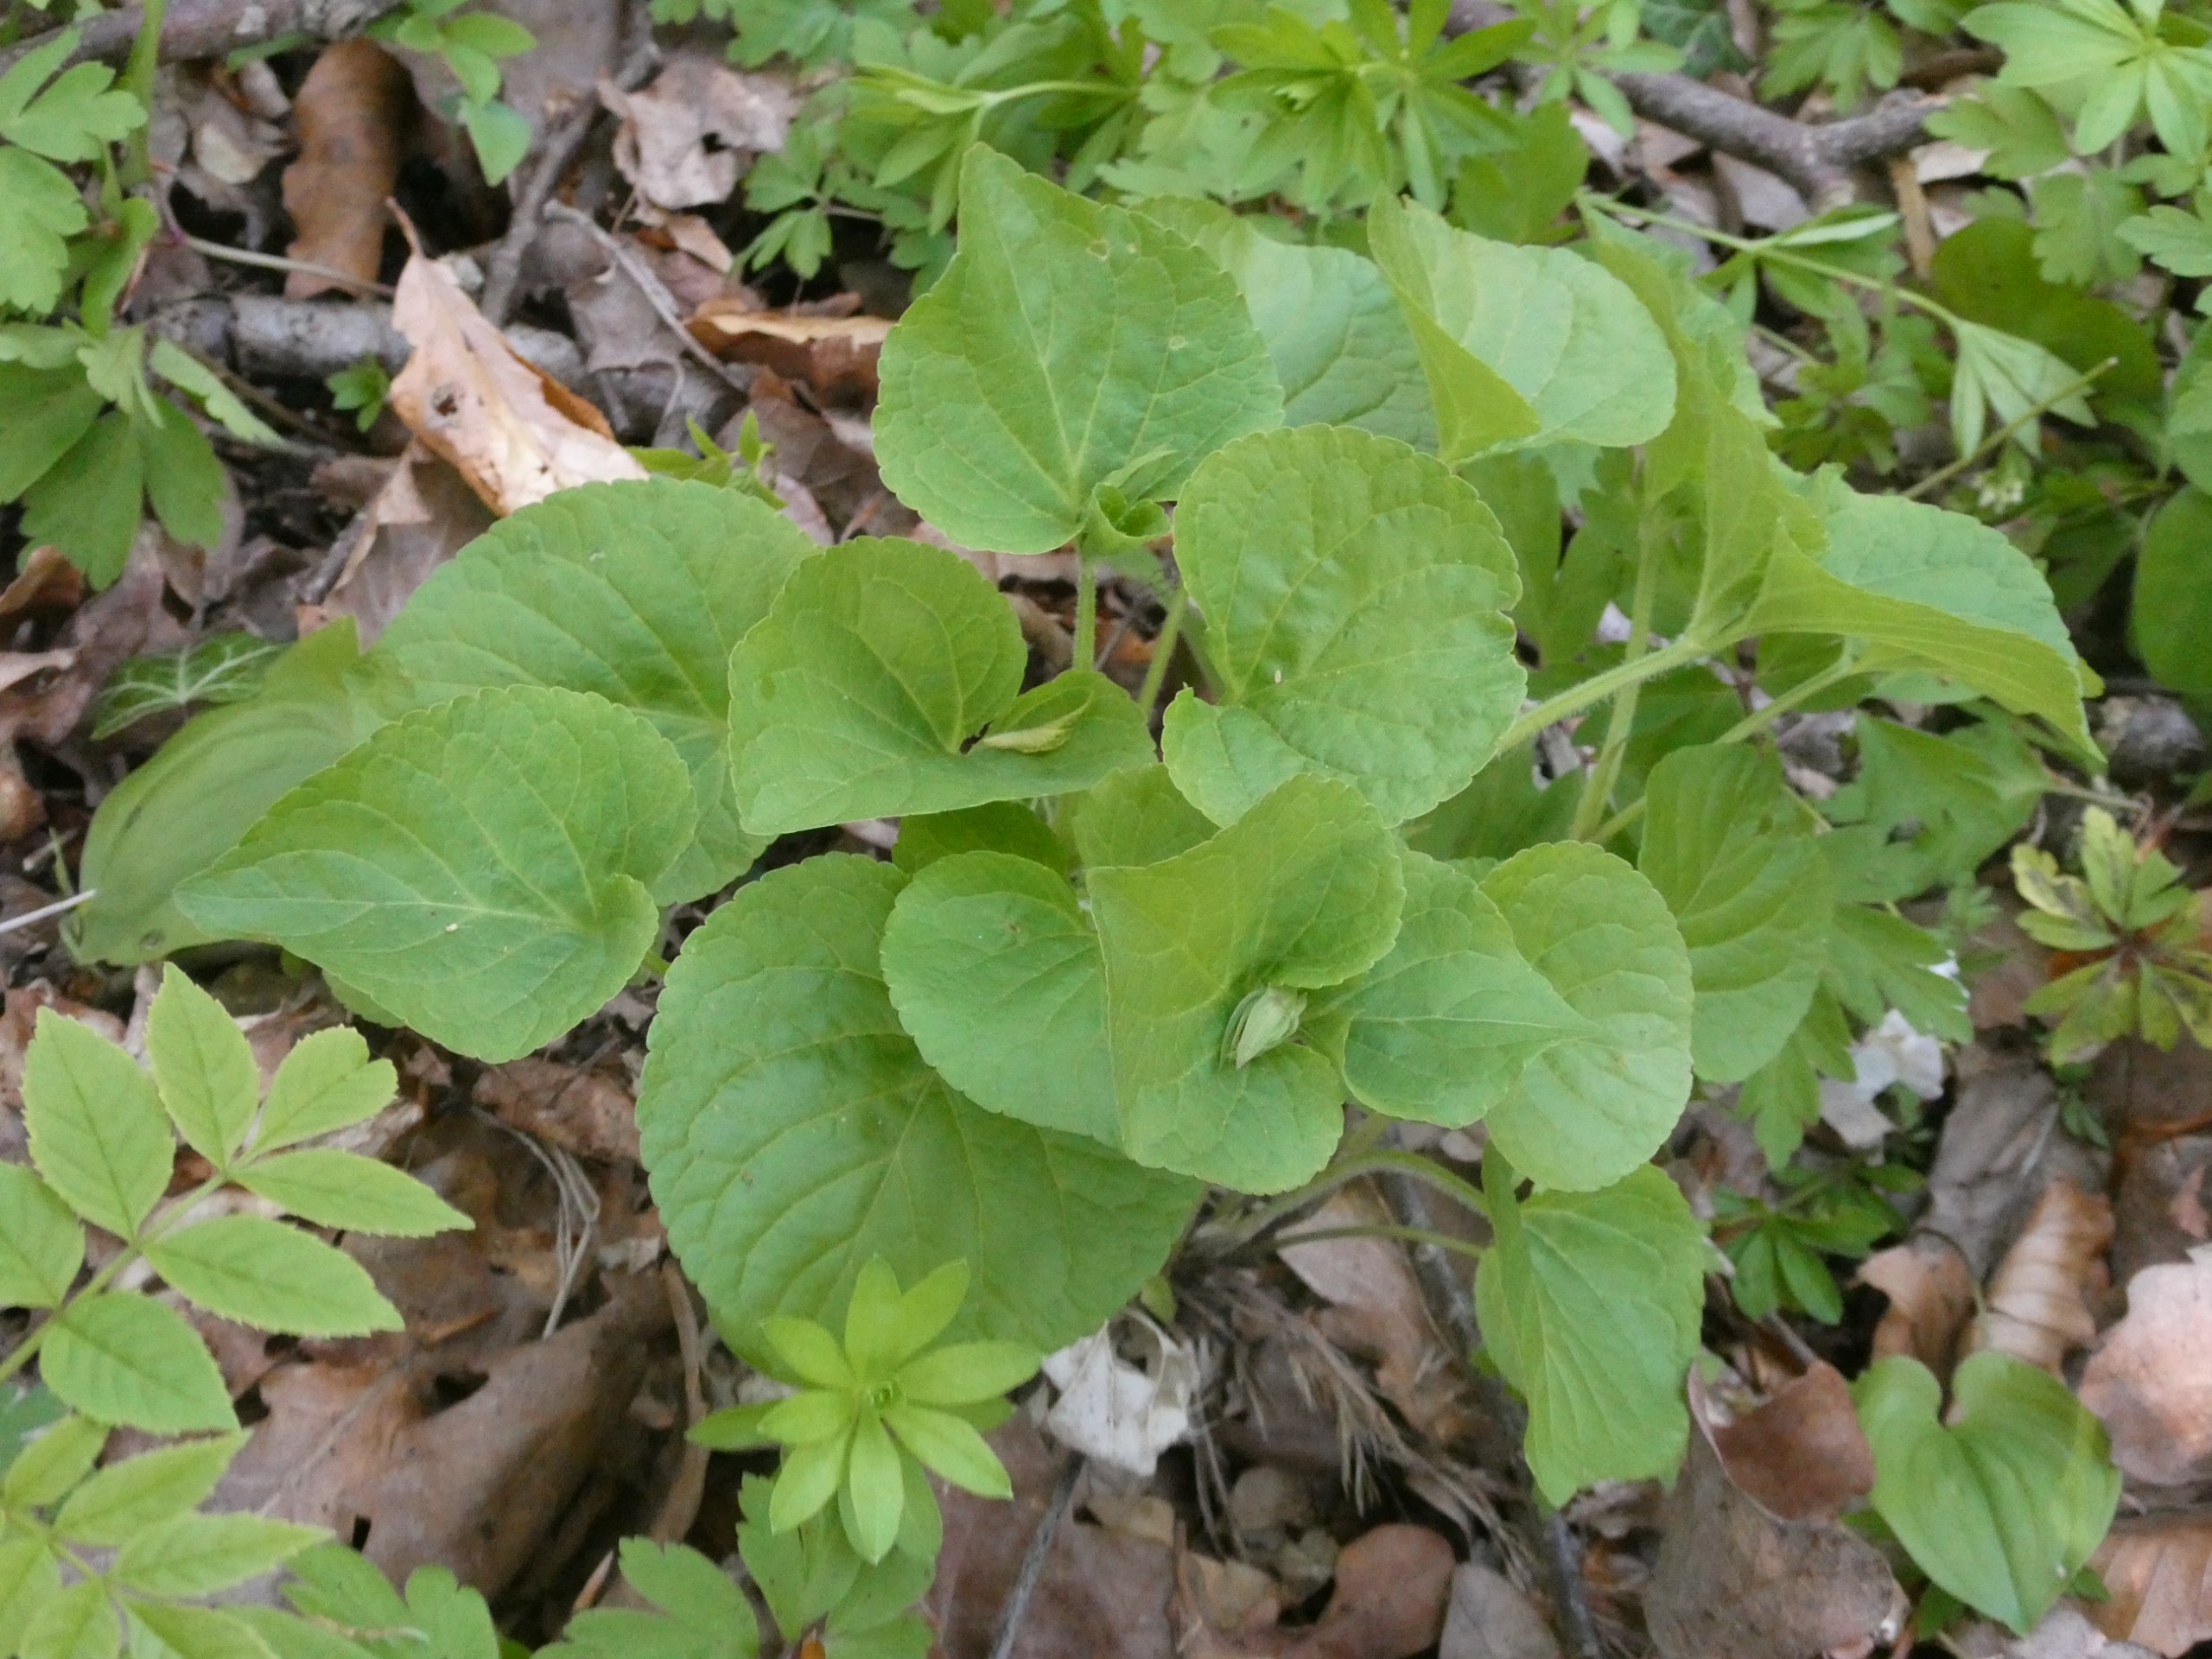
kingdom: Plantae
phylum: Tracheophyta
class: Magnoliopsida
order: Malpighiales
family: Violaceae
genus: Viola
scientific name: Viola mirabilis
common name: Forskelligblomstret viol
